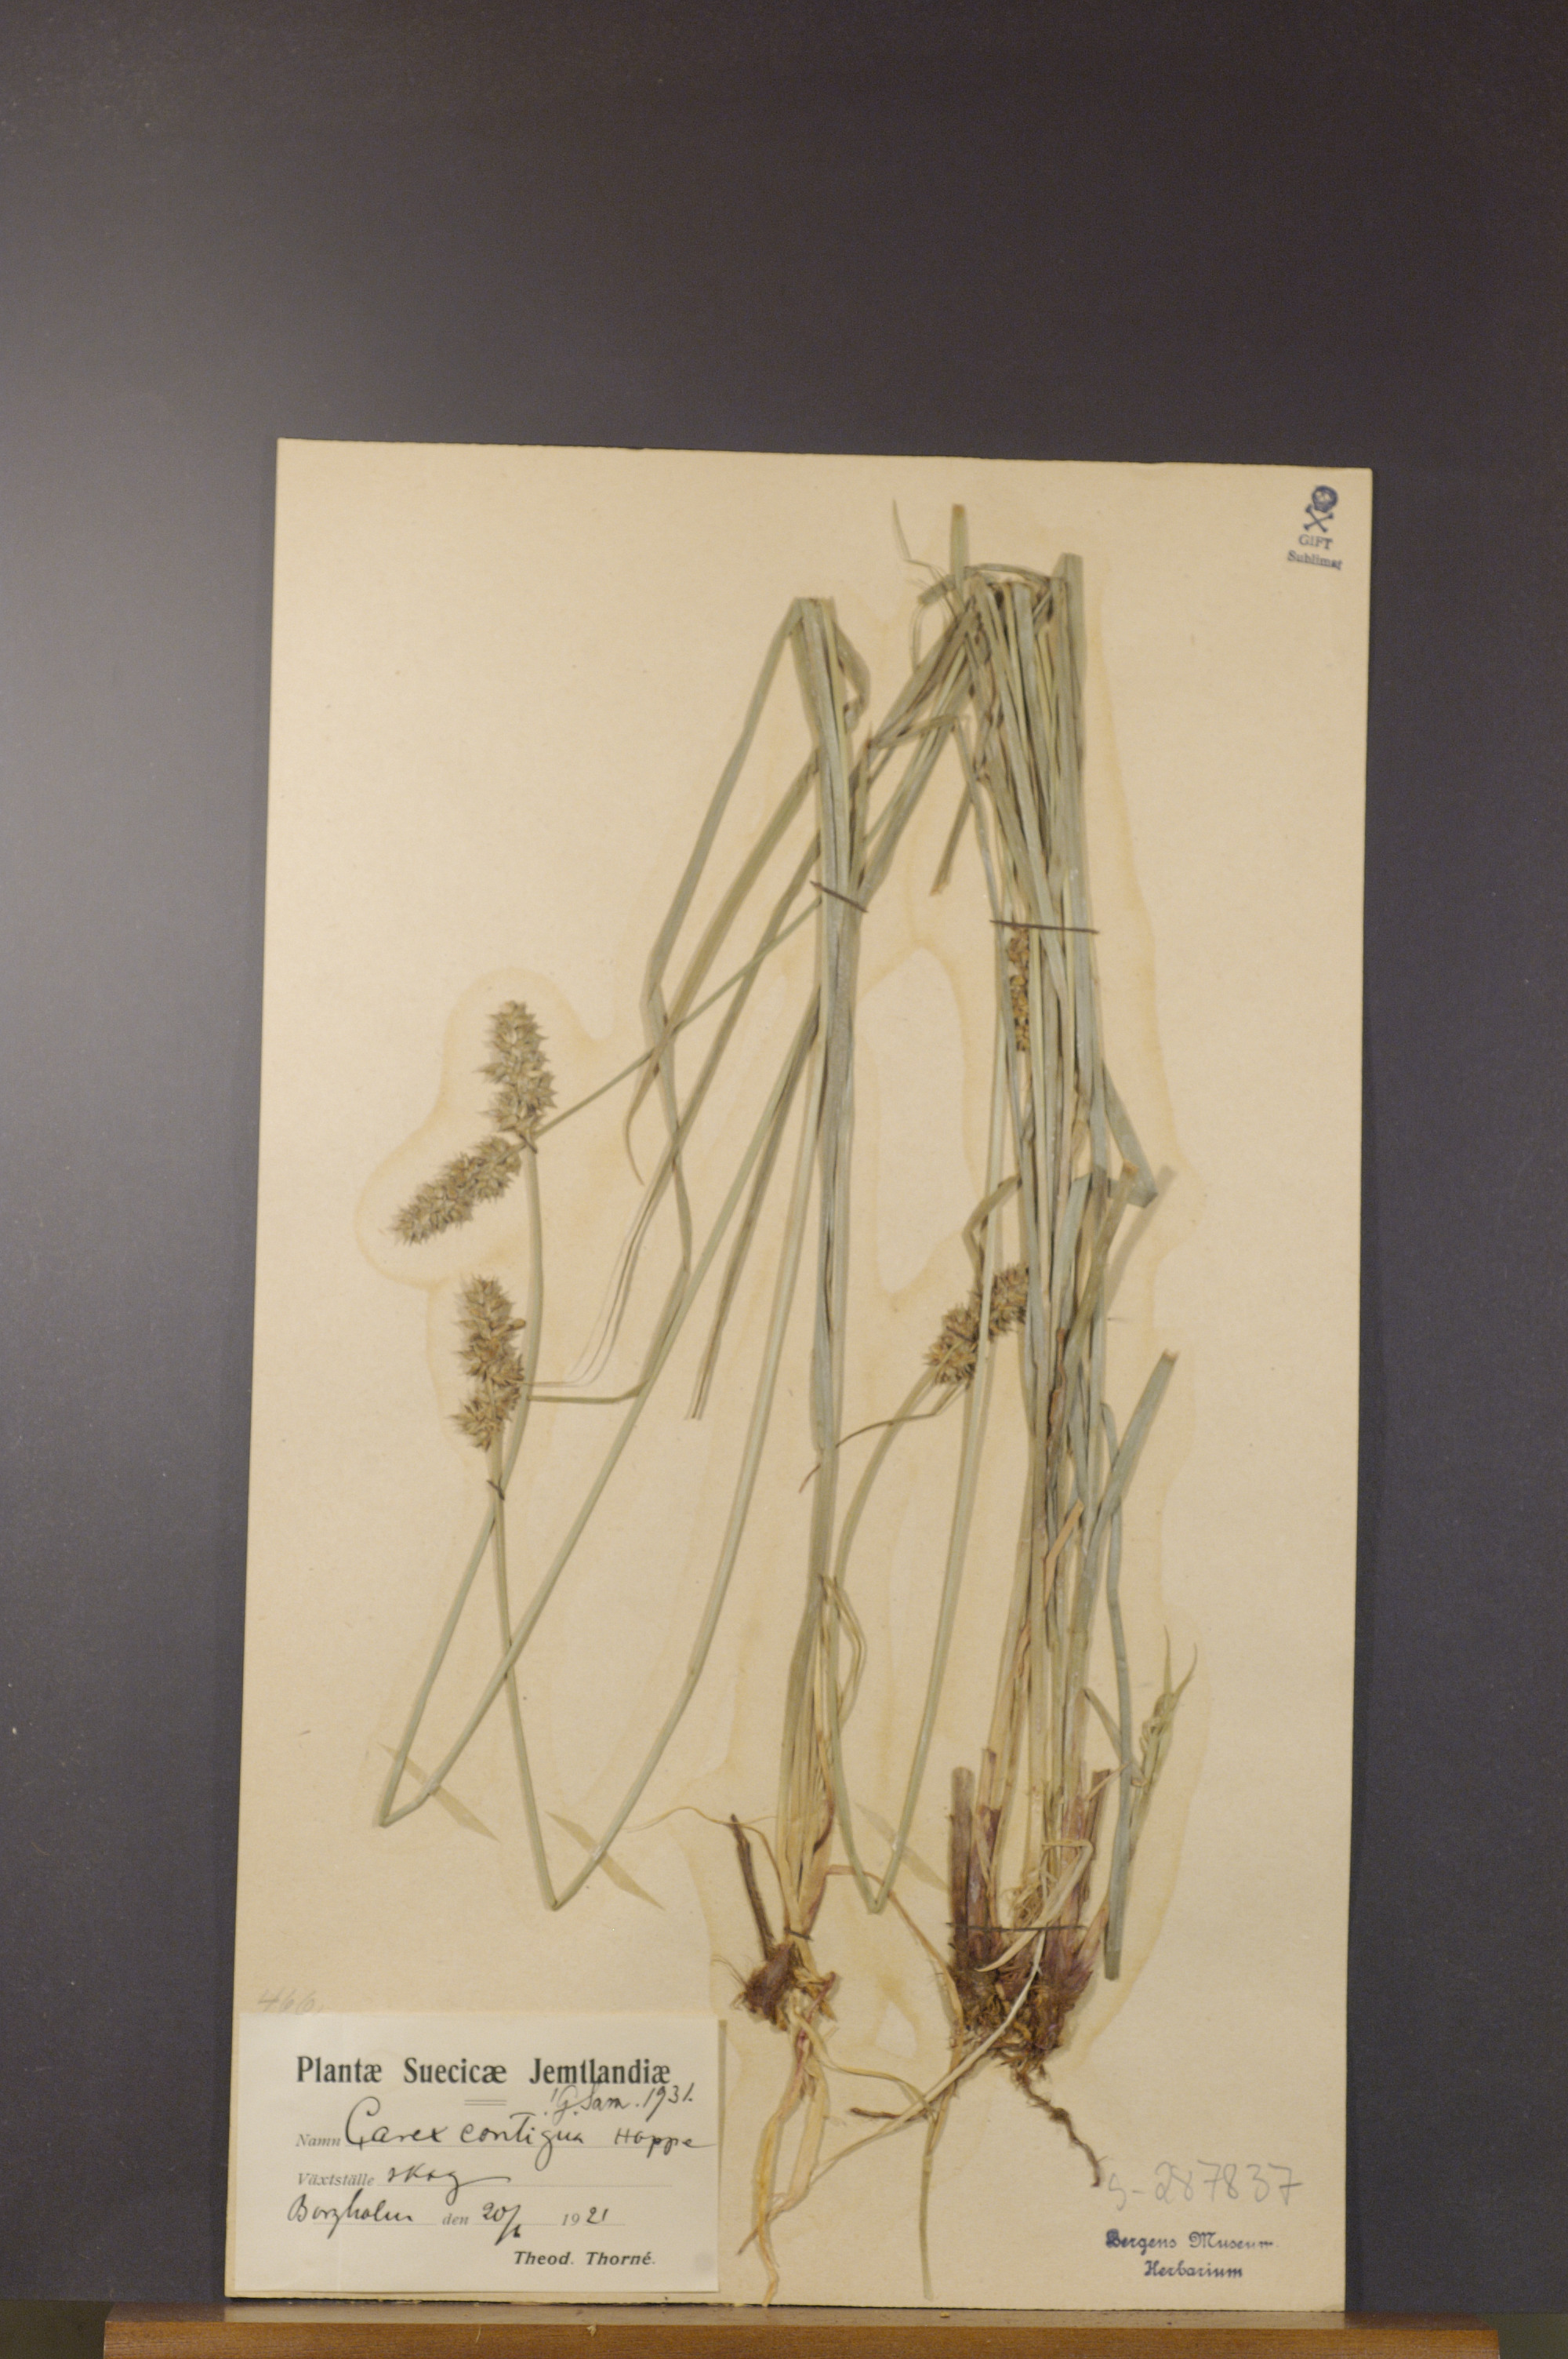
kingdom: Plantae
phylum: Tracheophyta
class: Liliopsida
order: Poales
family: Cyperaceae
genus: Carex
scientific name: Carex spicata
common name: Spiked sedge
